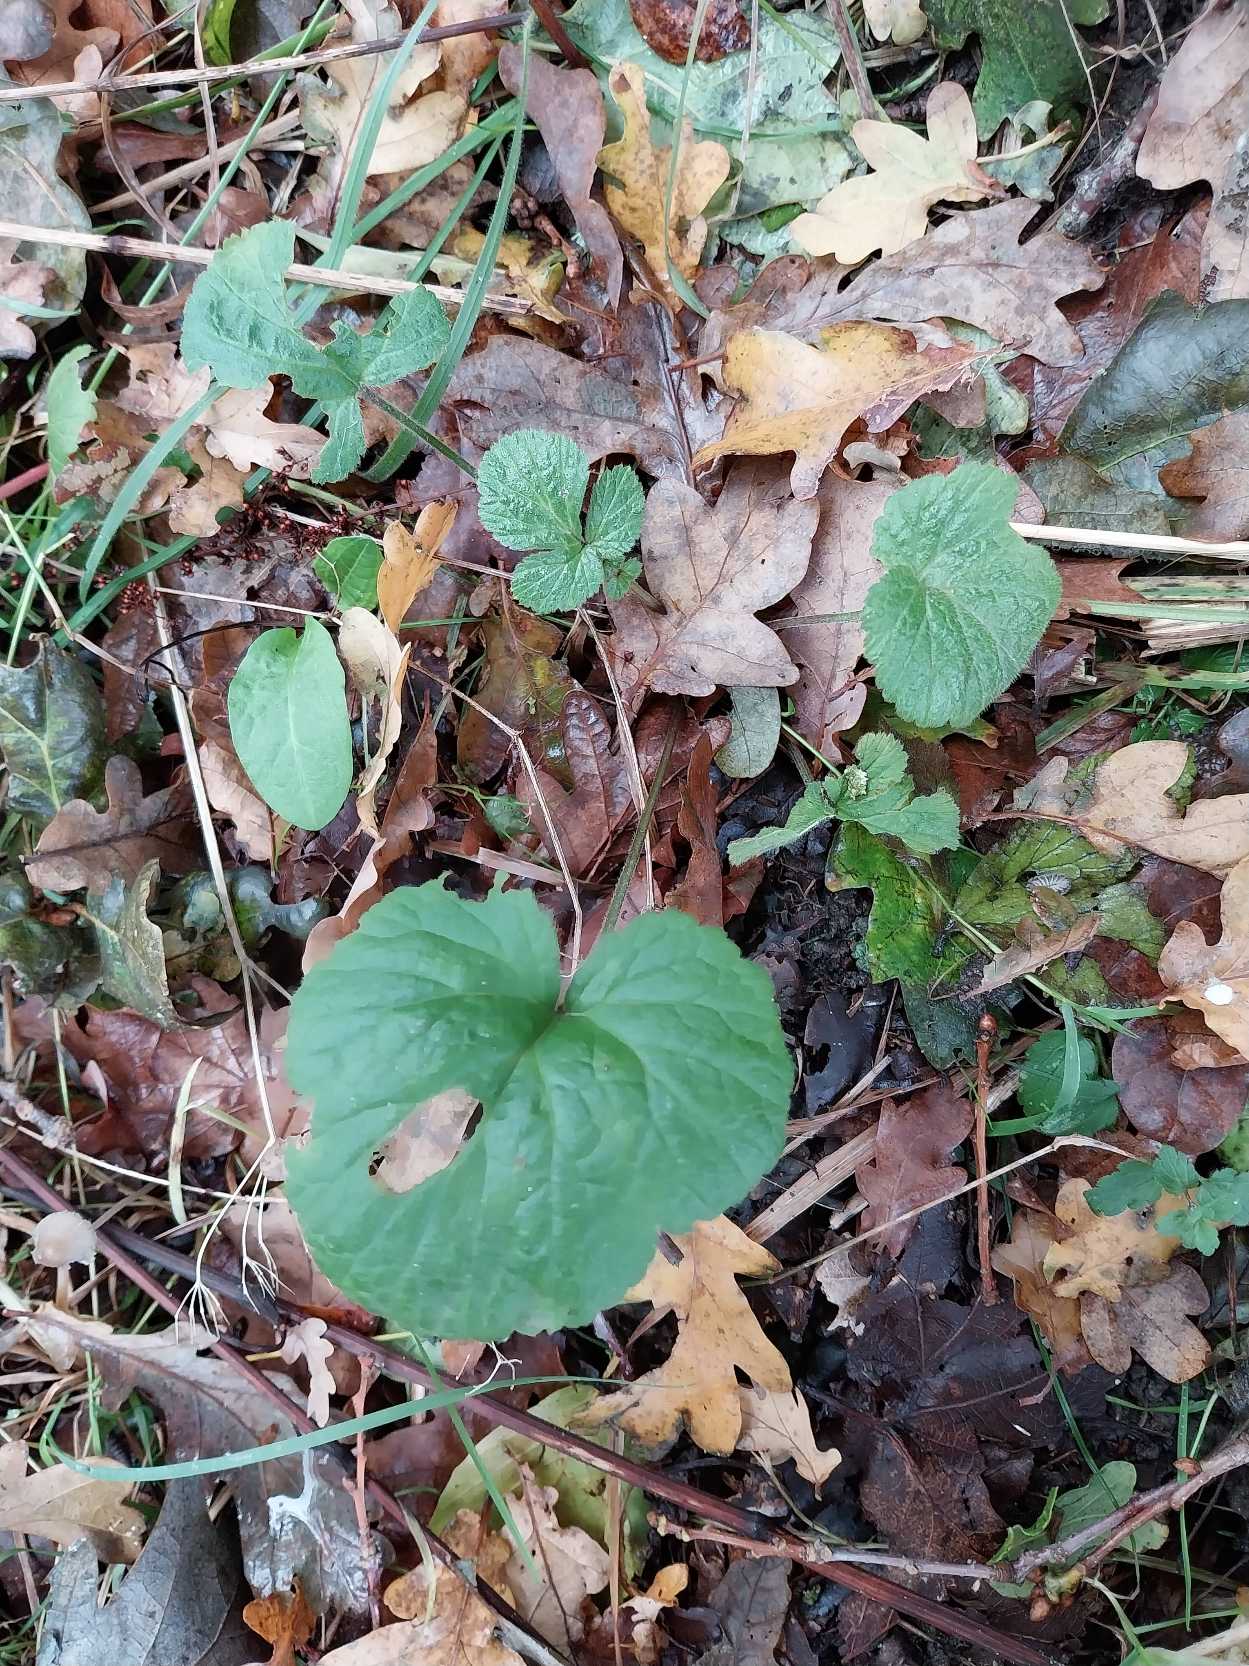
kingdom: Plantae
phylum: Tracheophyta
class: Magnoliopsida
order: Rosales
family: Rosaceae
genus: Geum
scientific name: Geum urbanum
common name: Feber-nellikerod
